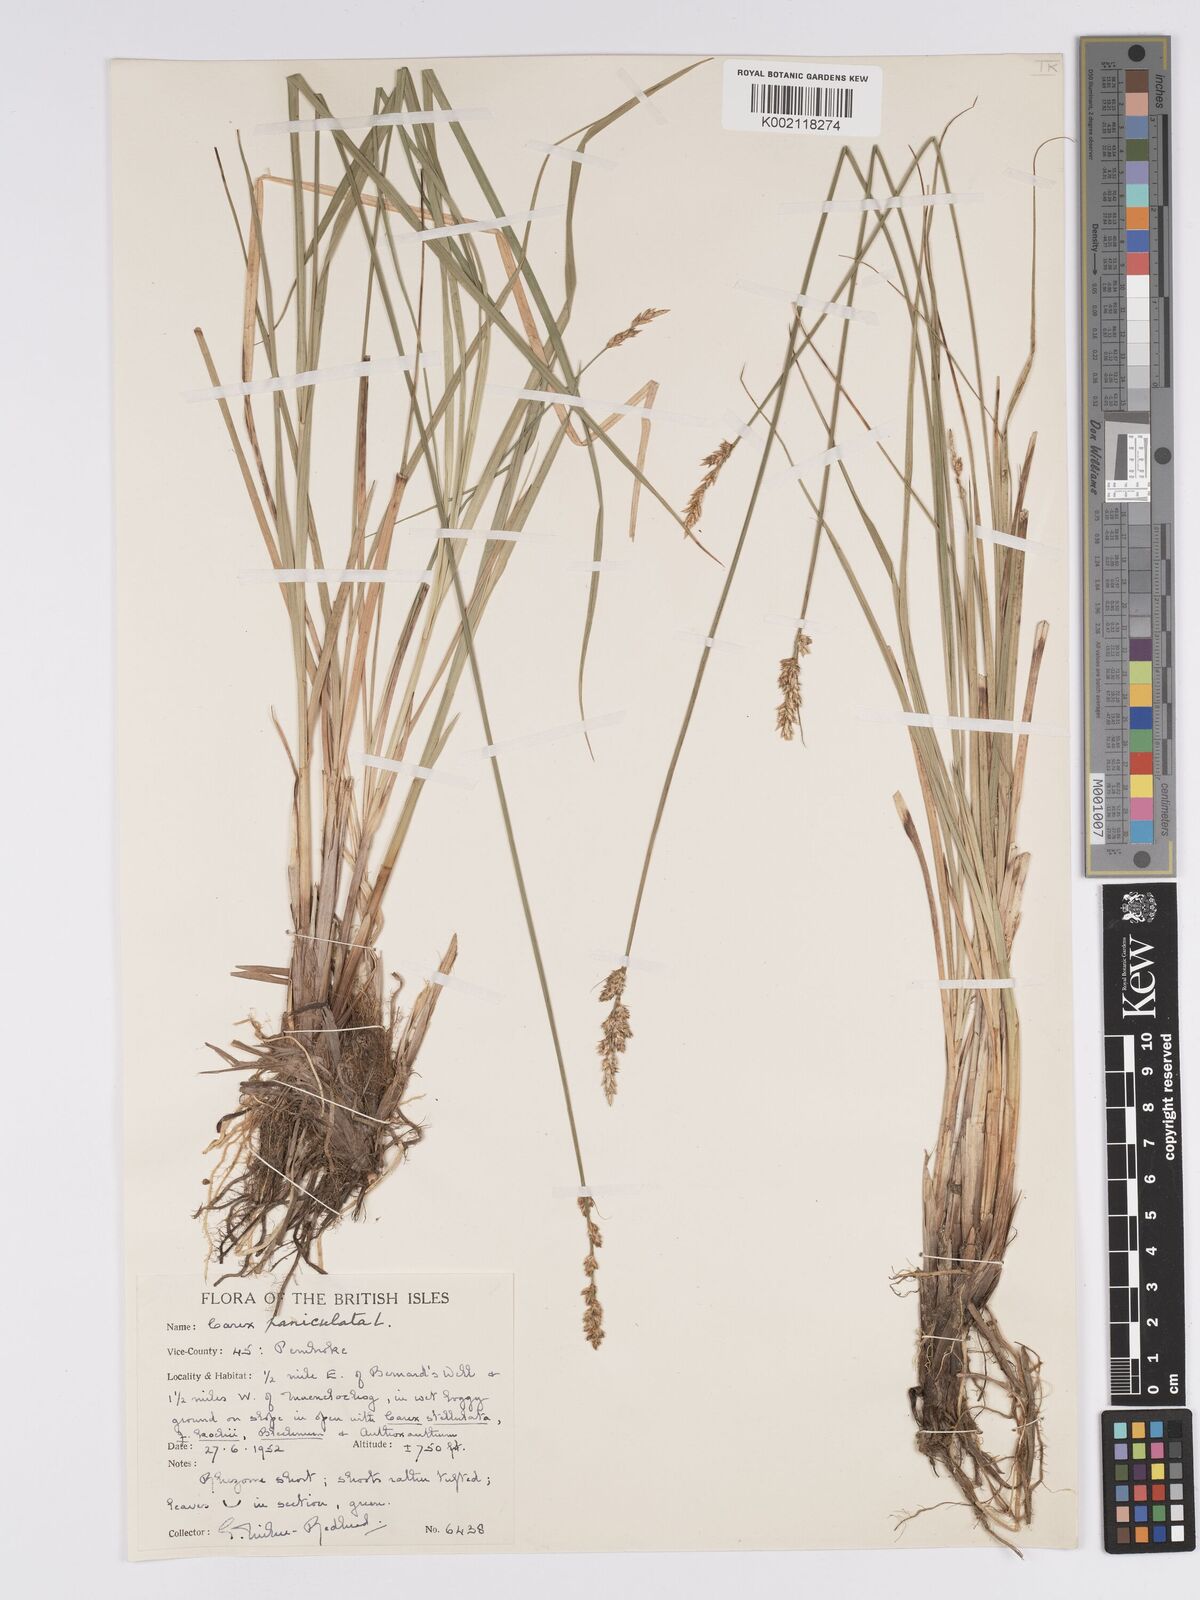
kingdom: Plantae
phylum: Tracheophyta
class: Liliopsida
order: Poales
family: Cyperaceae
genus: Carex
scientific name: Carex paniculata
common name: Greater tussock-sedge
